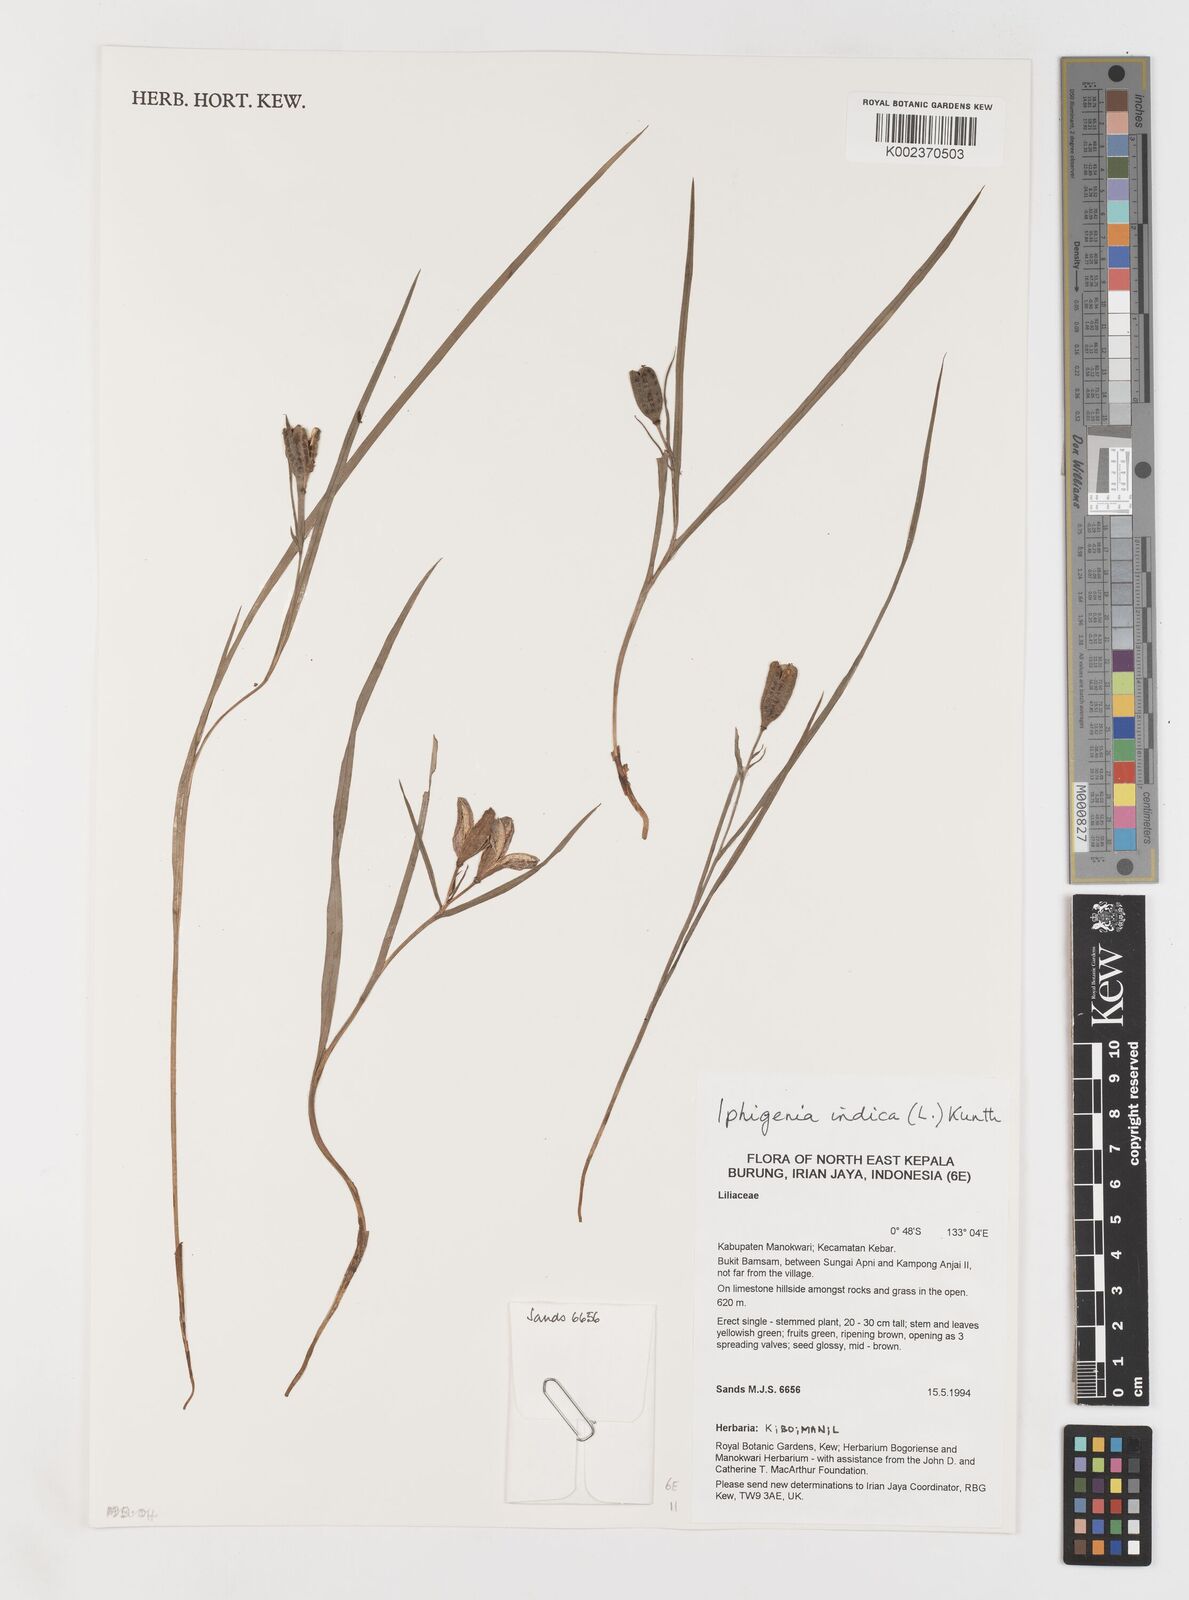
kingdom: Plantae
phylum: Tracheophyta
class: Liliopsida
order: Liliales
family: Colchicaceae
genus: Iphigenia
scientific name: Iphigenia indica
